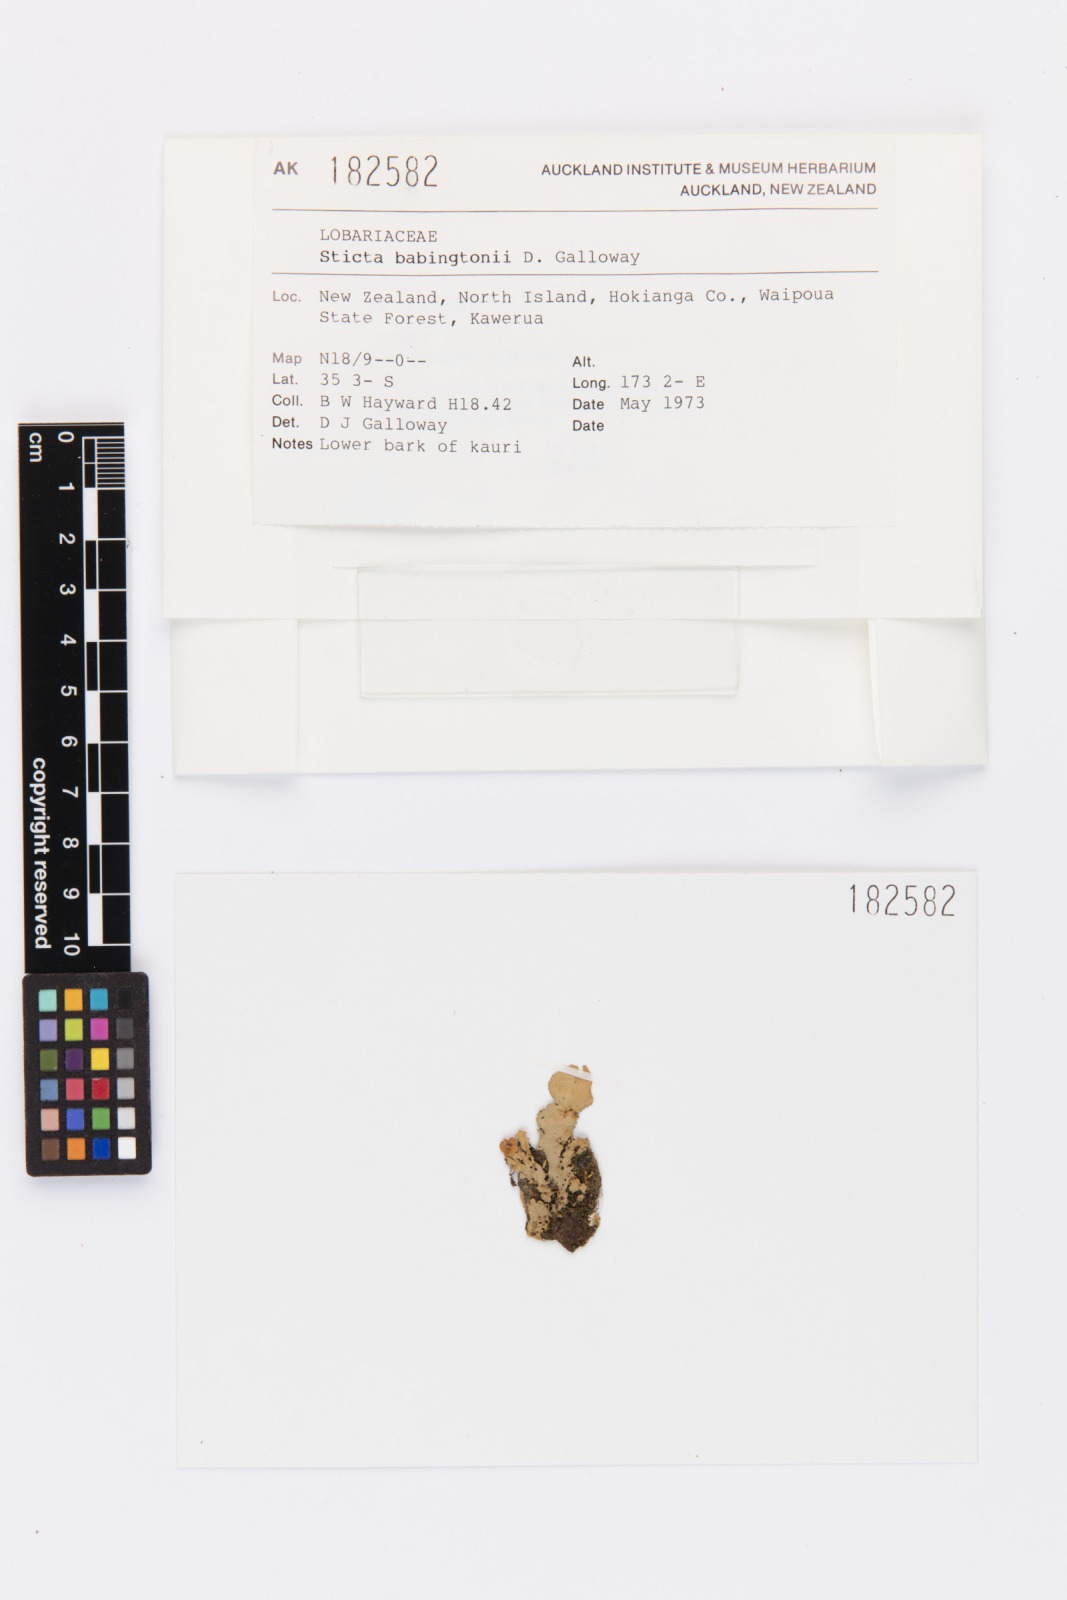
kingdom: Fungi
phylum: Ascomycota
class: Lecanoromycetes
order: Peltigerales
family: Lobariaceae
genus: Sticta
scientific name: Sticta babingtonii
